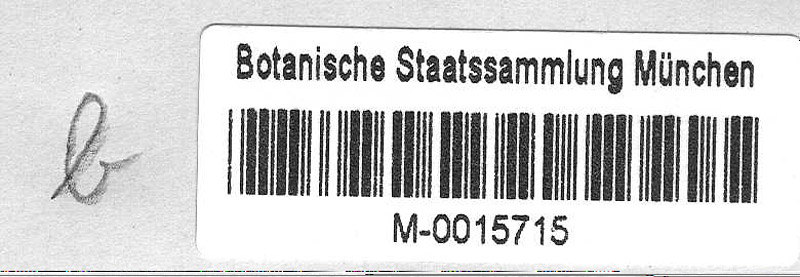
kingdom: Plantae
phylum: Tracheophyta
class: Magnoliopsida
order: Lamiales
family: Scrophulariaceae
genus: Verbascum
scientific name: Verbascum
